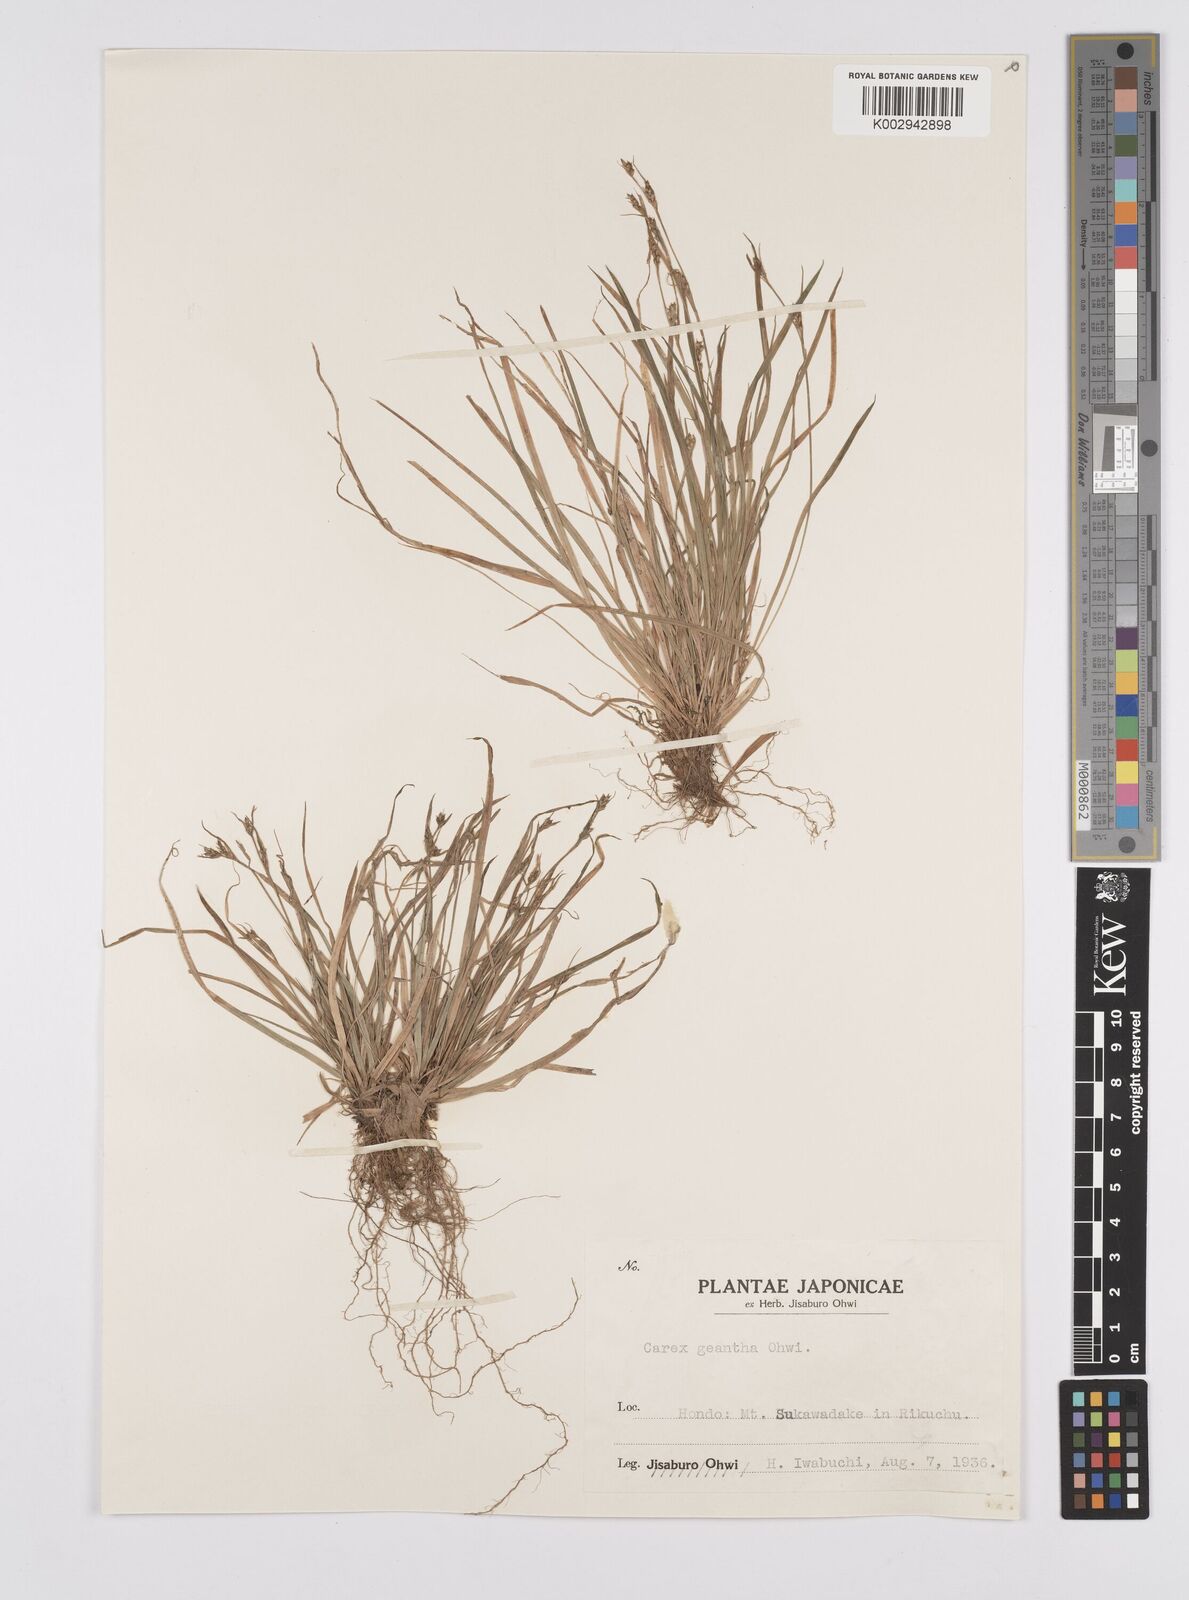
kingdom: Plantae
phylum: Tracheophyta
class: Liliopsida
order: Poales
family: Cyperaceae
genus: Carex
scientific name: Carex geantha
